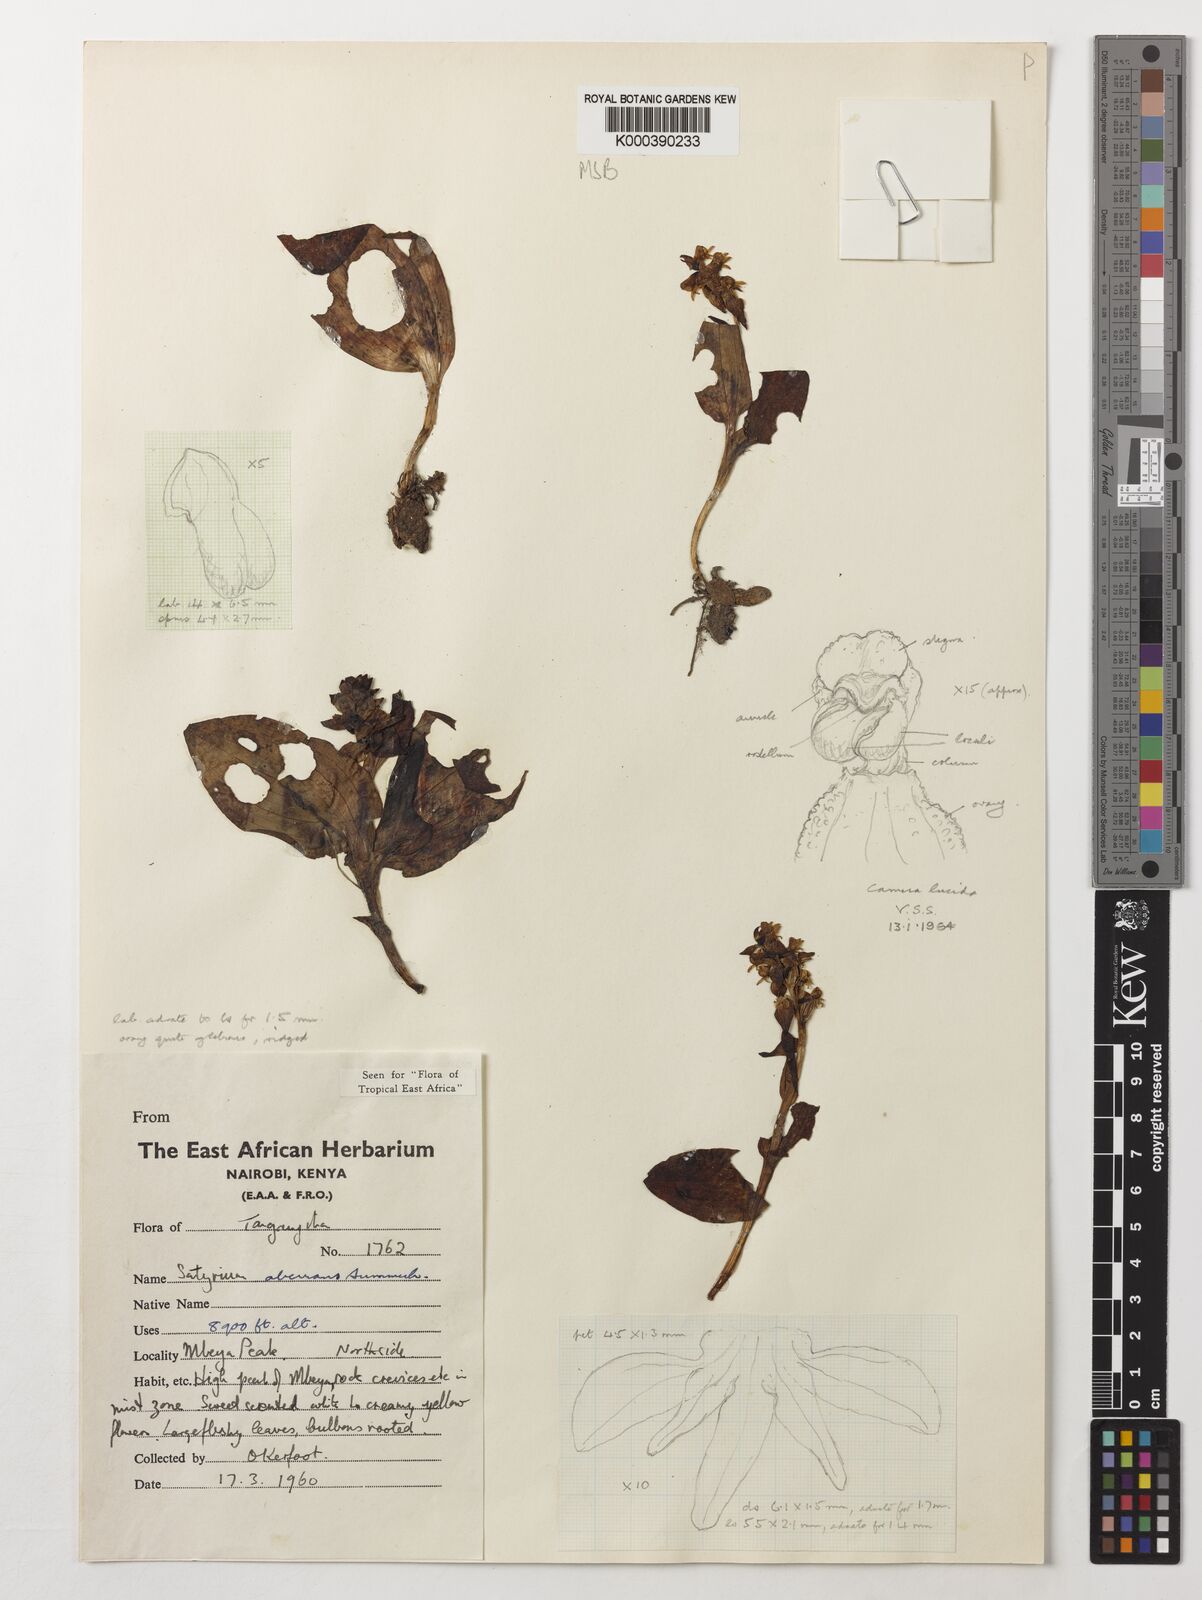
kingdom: Plantae
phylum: Tracheophyta
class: Liliopsida
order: Asparagales
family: Orchidaceae
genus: Satyrium
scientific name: Satyrium aberrans
